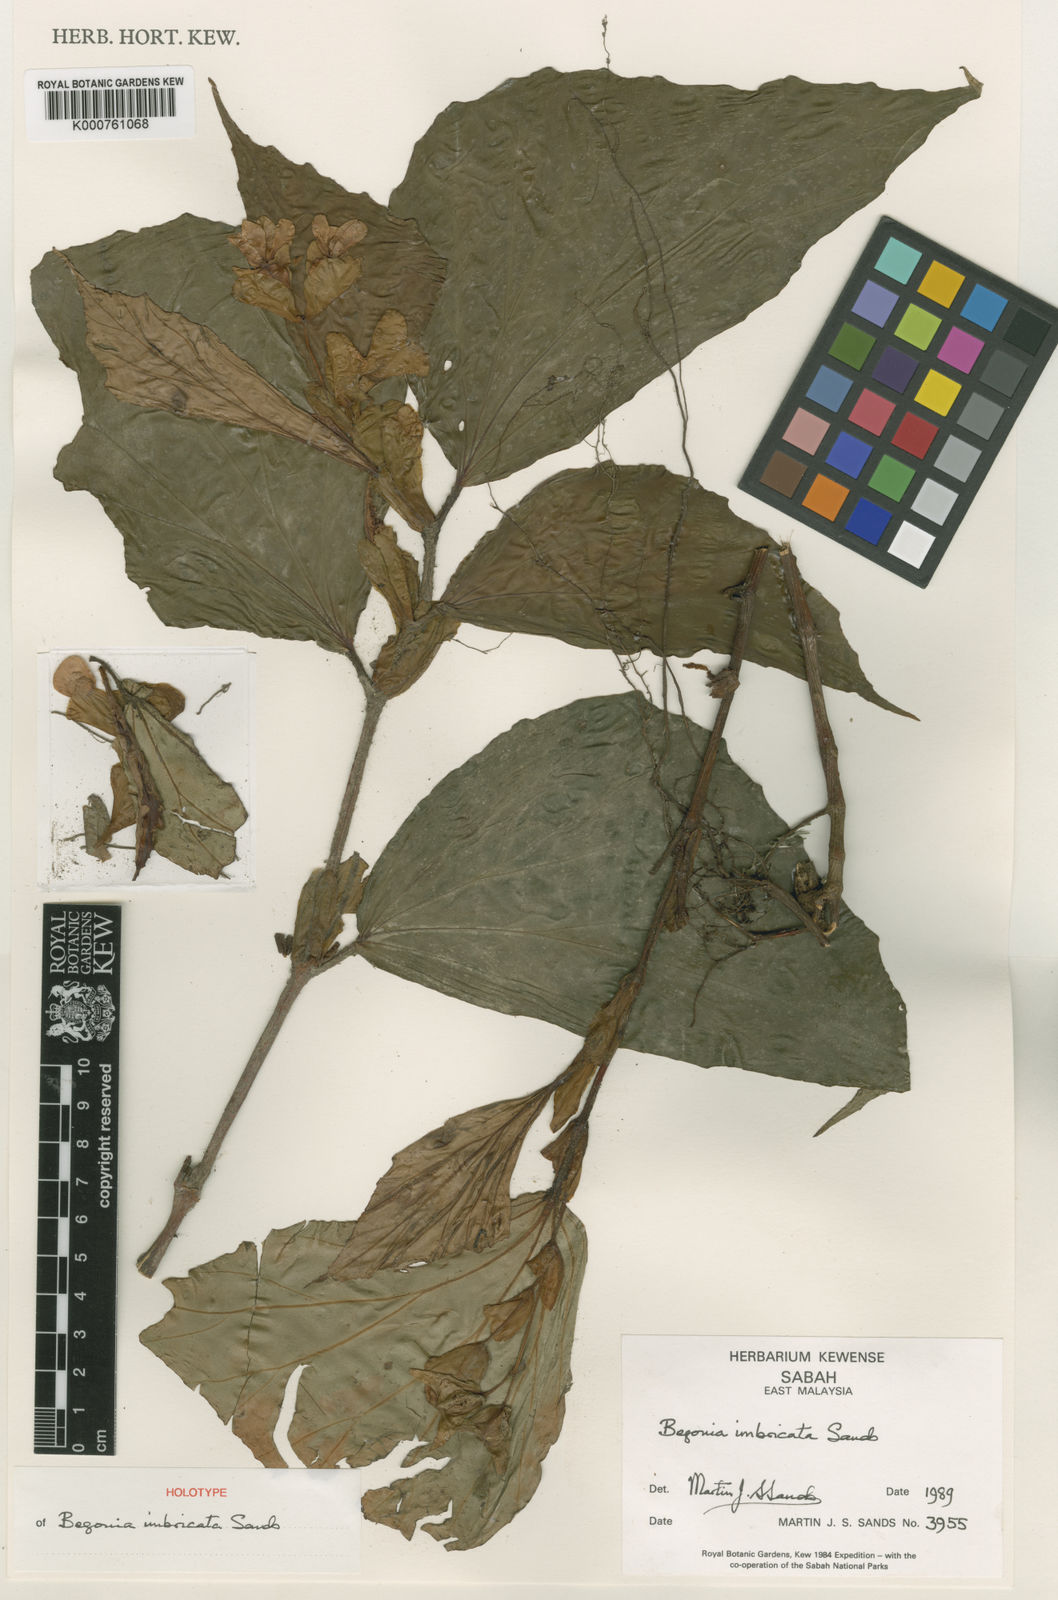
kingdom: Plantae
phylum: Tracheophyta
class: Magnoliopsida
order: Cucurbitales
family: Begoniaceae
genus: Begonia
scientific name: Begonia imbricata
